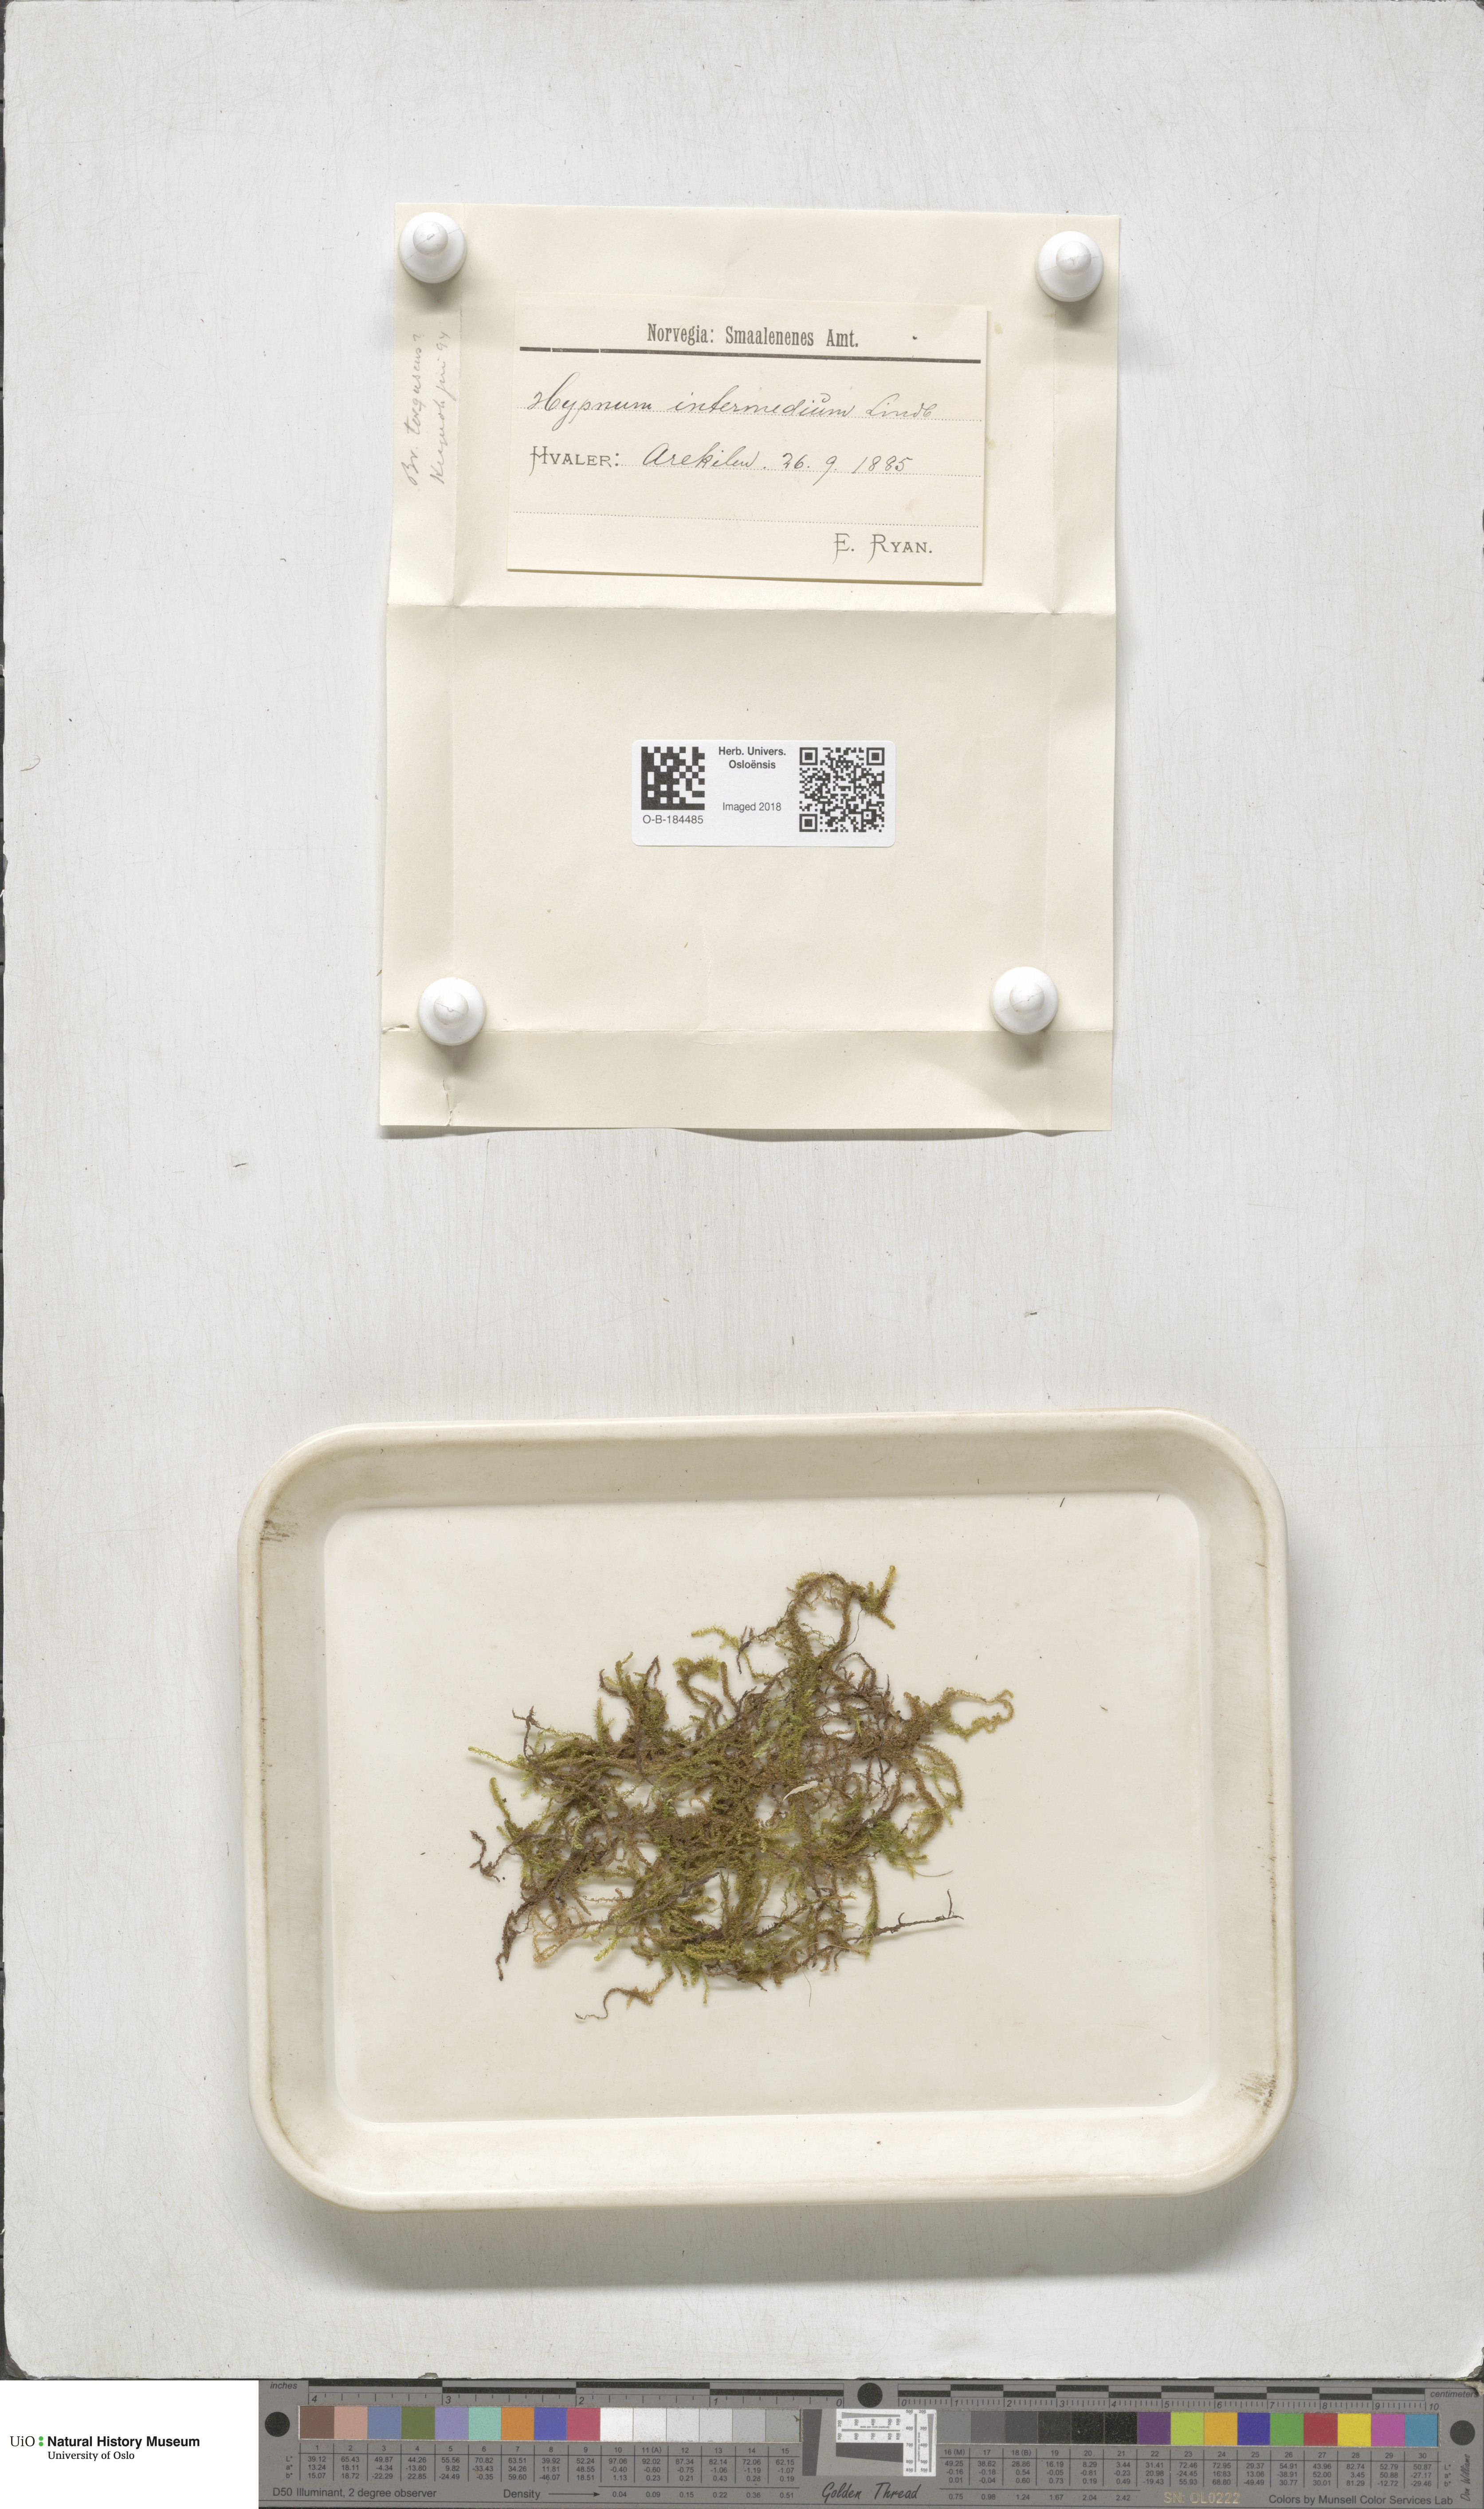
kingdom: Plantae
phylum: Bryophyta
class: Bryopsida
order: Hypnales
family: Scorpidiaceae
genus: Scorpidium
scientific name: Scorpidium cossonii
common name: Cosson's hook moss
